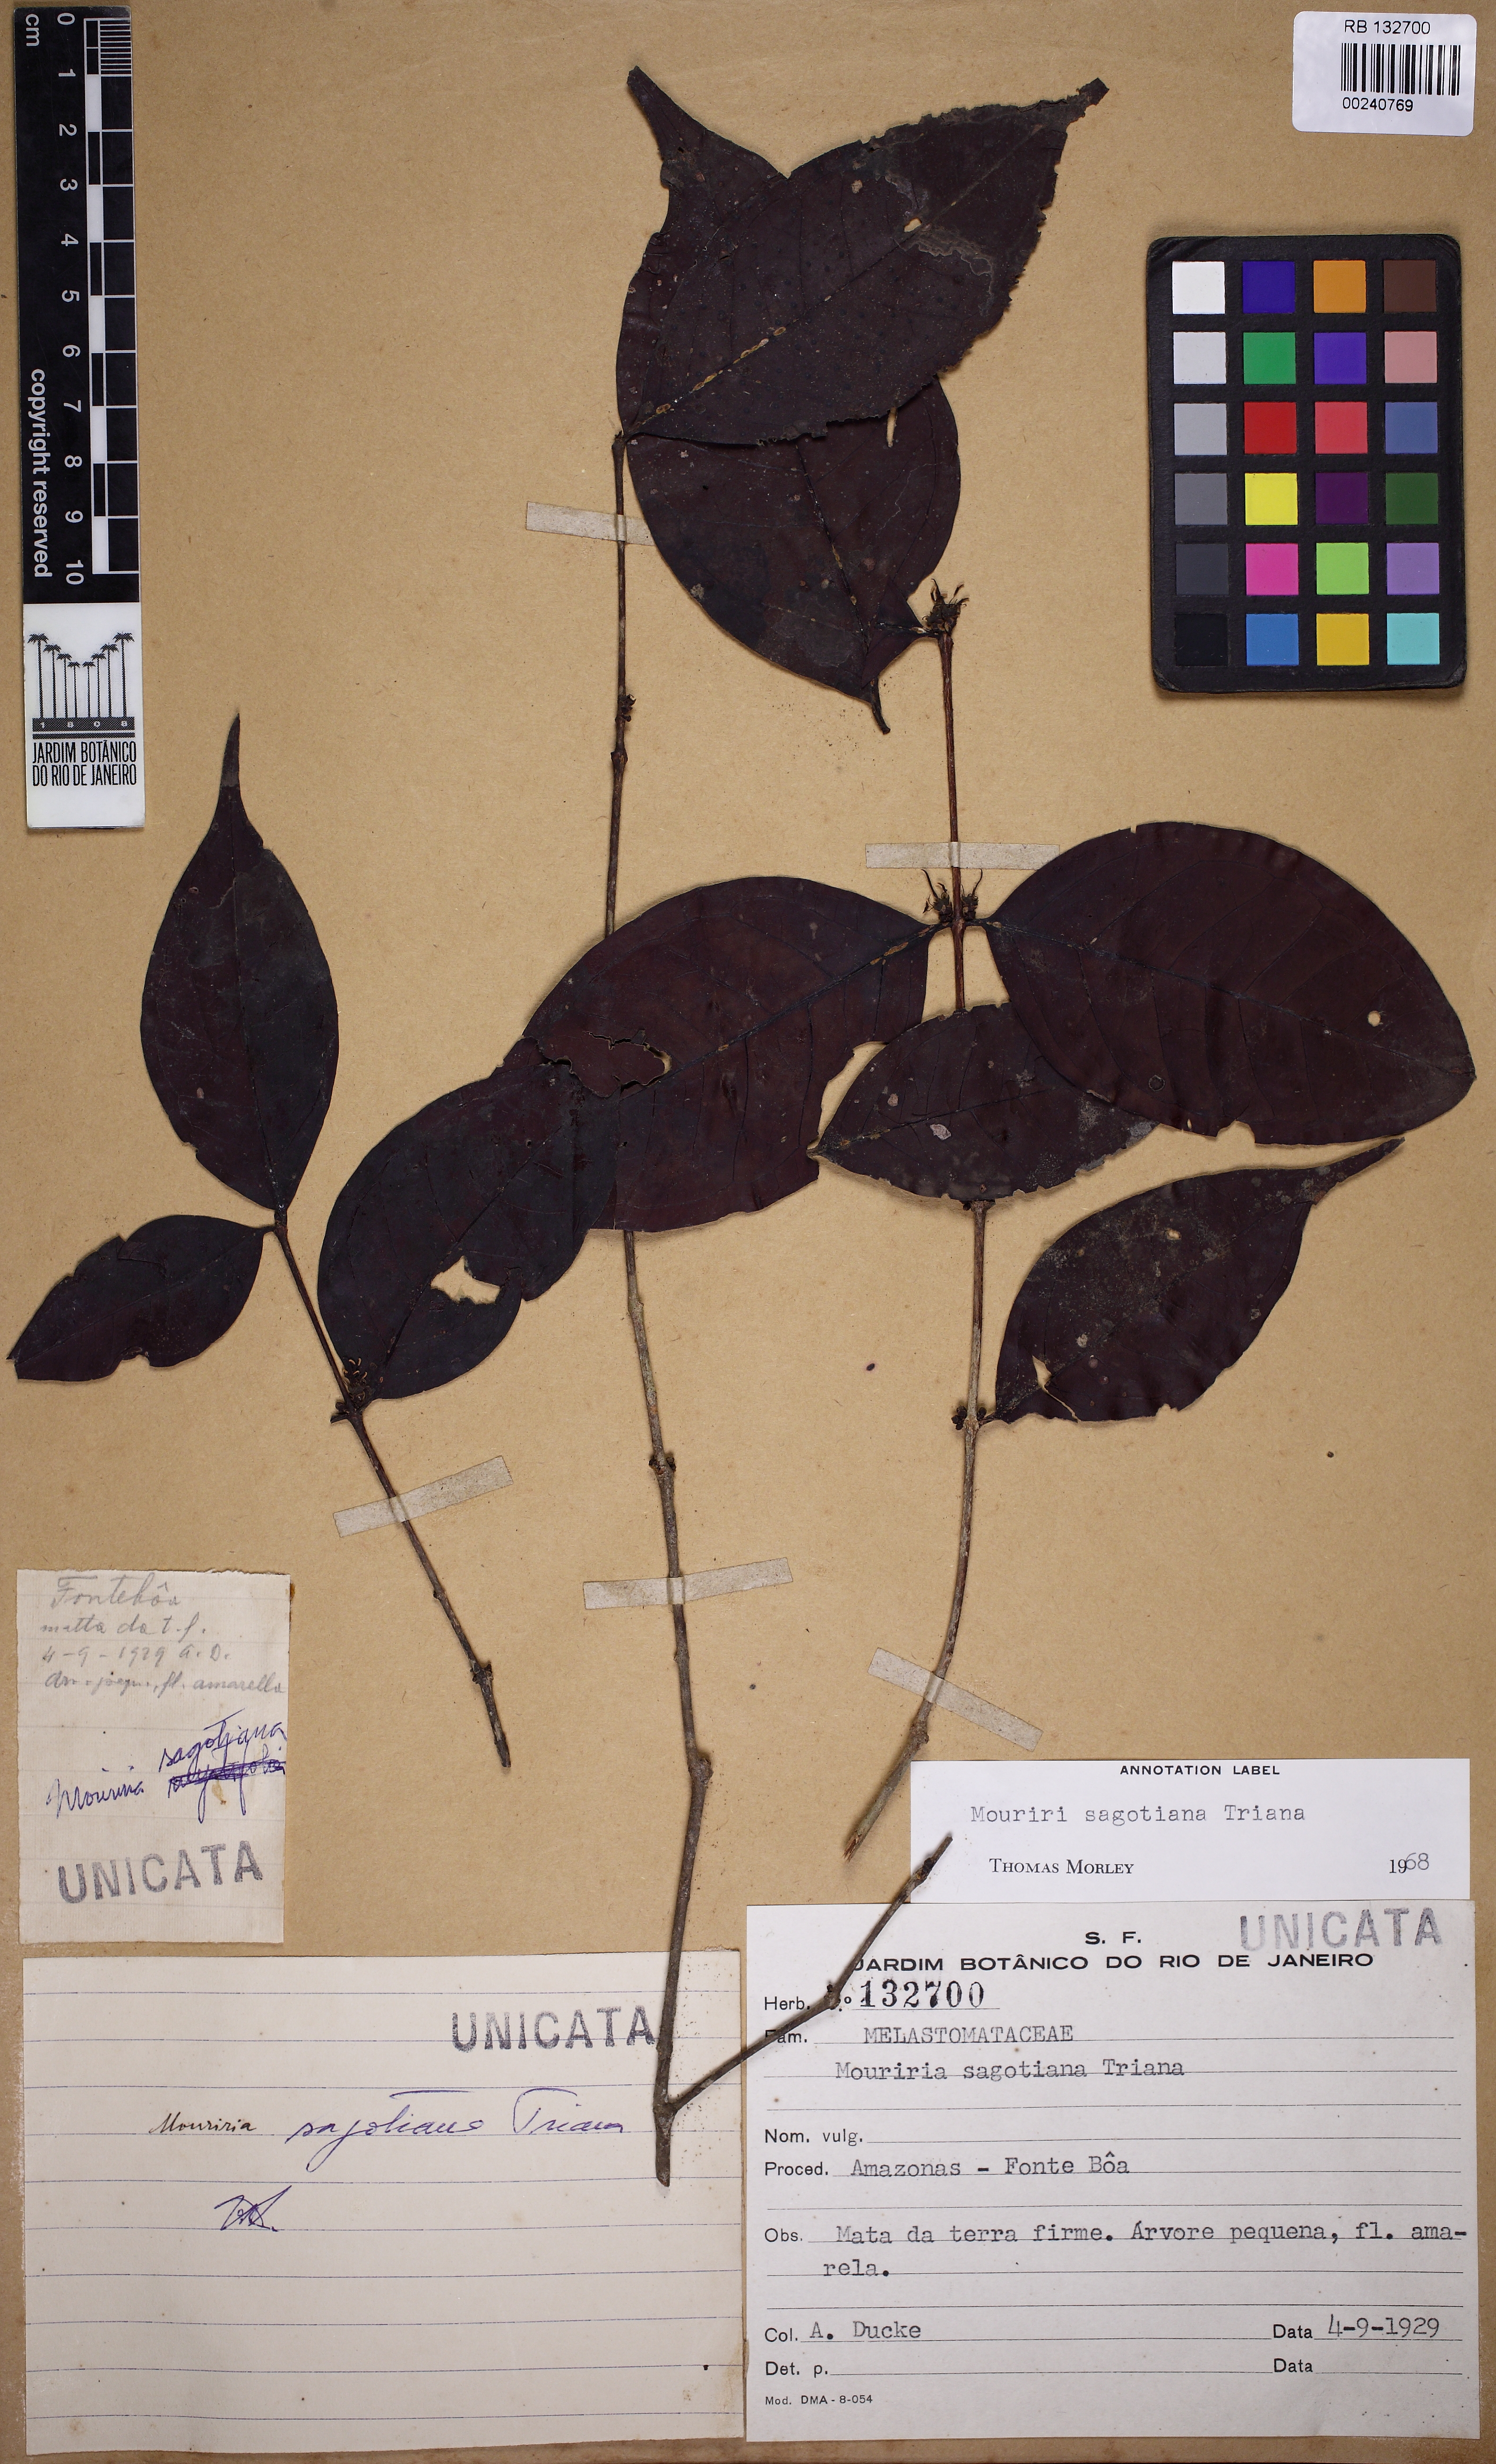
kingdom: Plantae
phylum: Tracheophyta
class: Magnoliopsida
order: Myrtales
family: Melastomataceae
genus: Mouriri
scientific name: Mouriri sagotiana
